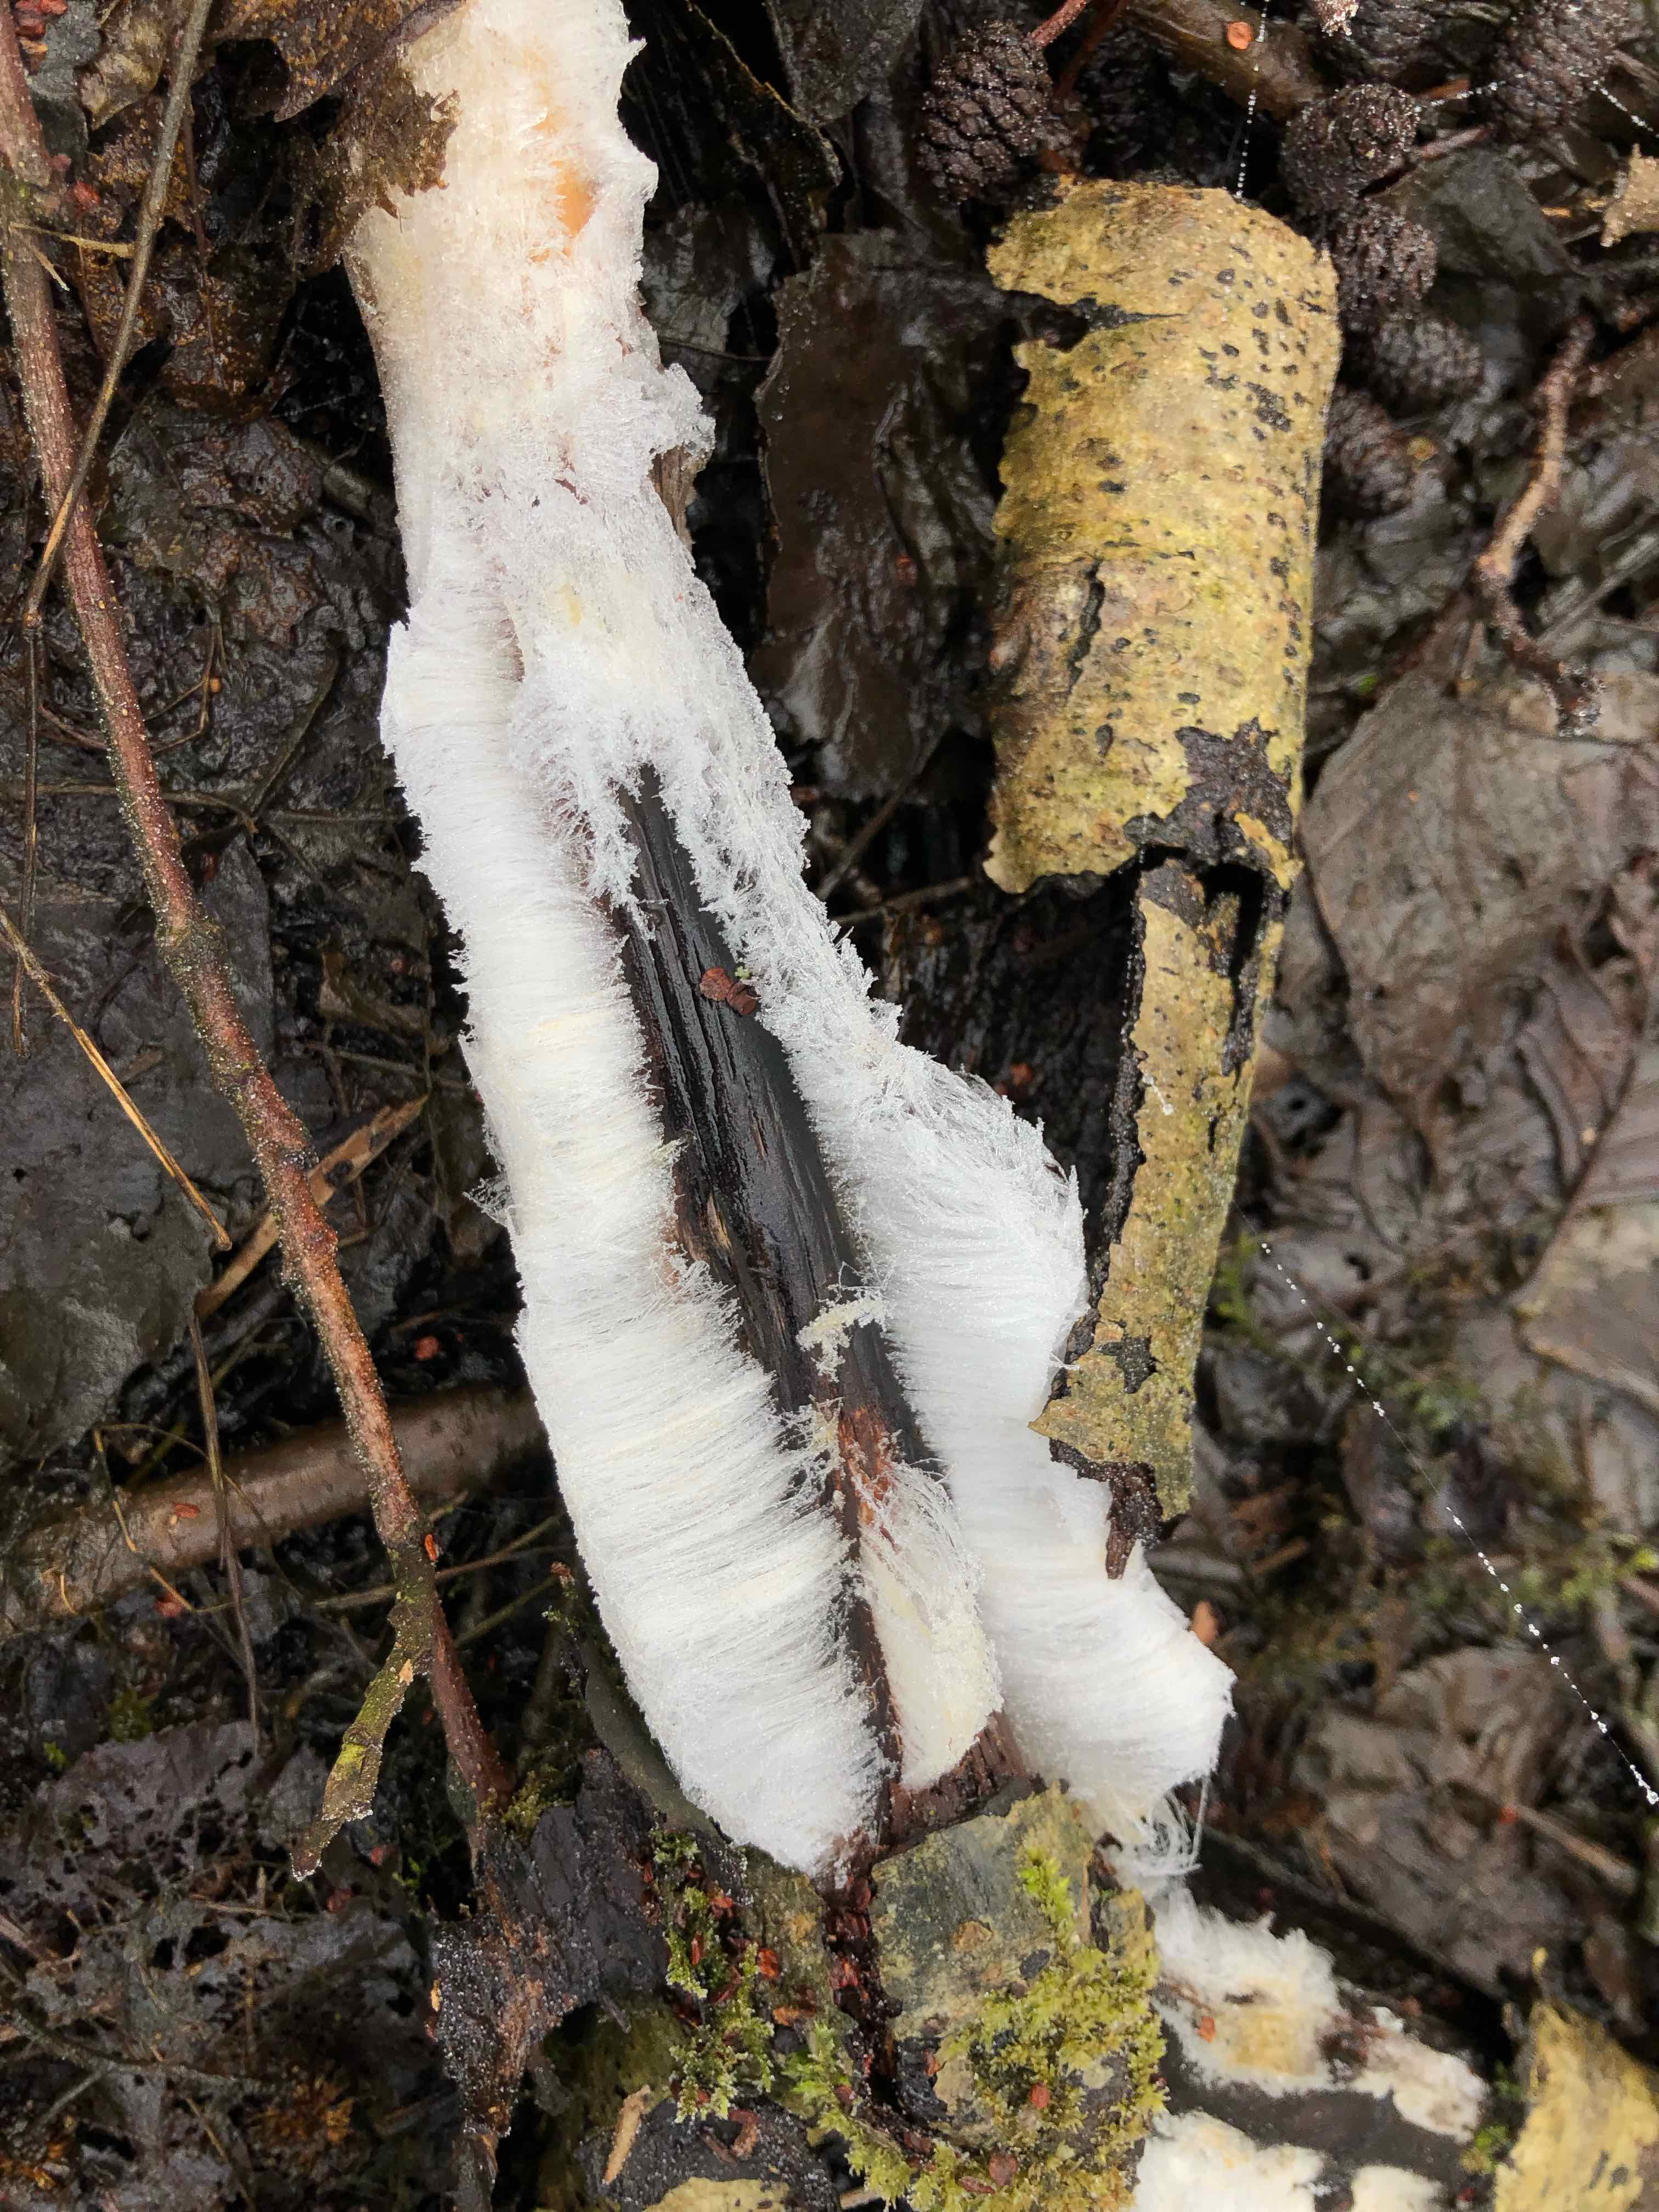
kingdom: Fungi
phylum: Basidiomycota
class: Tremellomycetes
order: Tremellales
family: Exidiaceae
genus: Exidiopsis
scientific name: Exidiopsis effusa
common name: smuk bævrehinde
